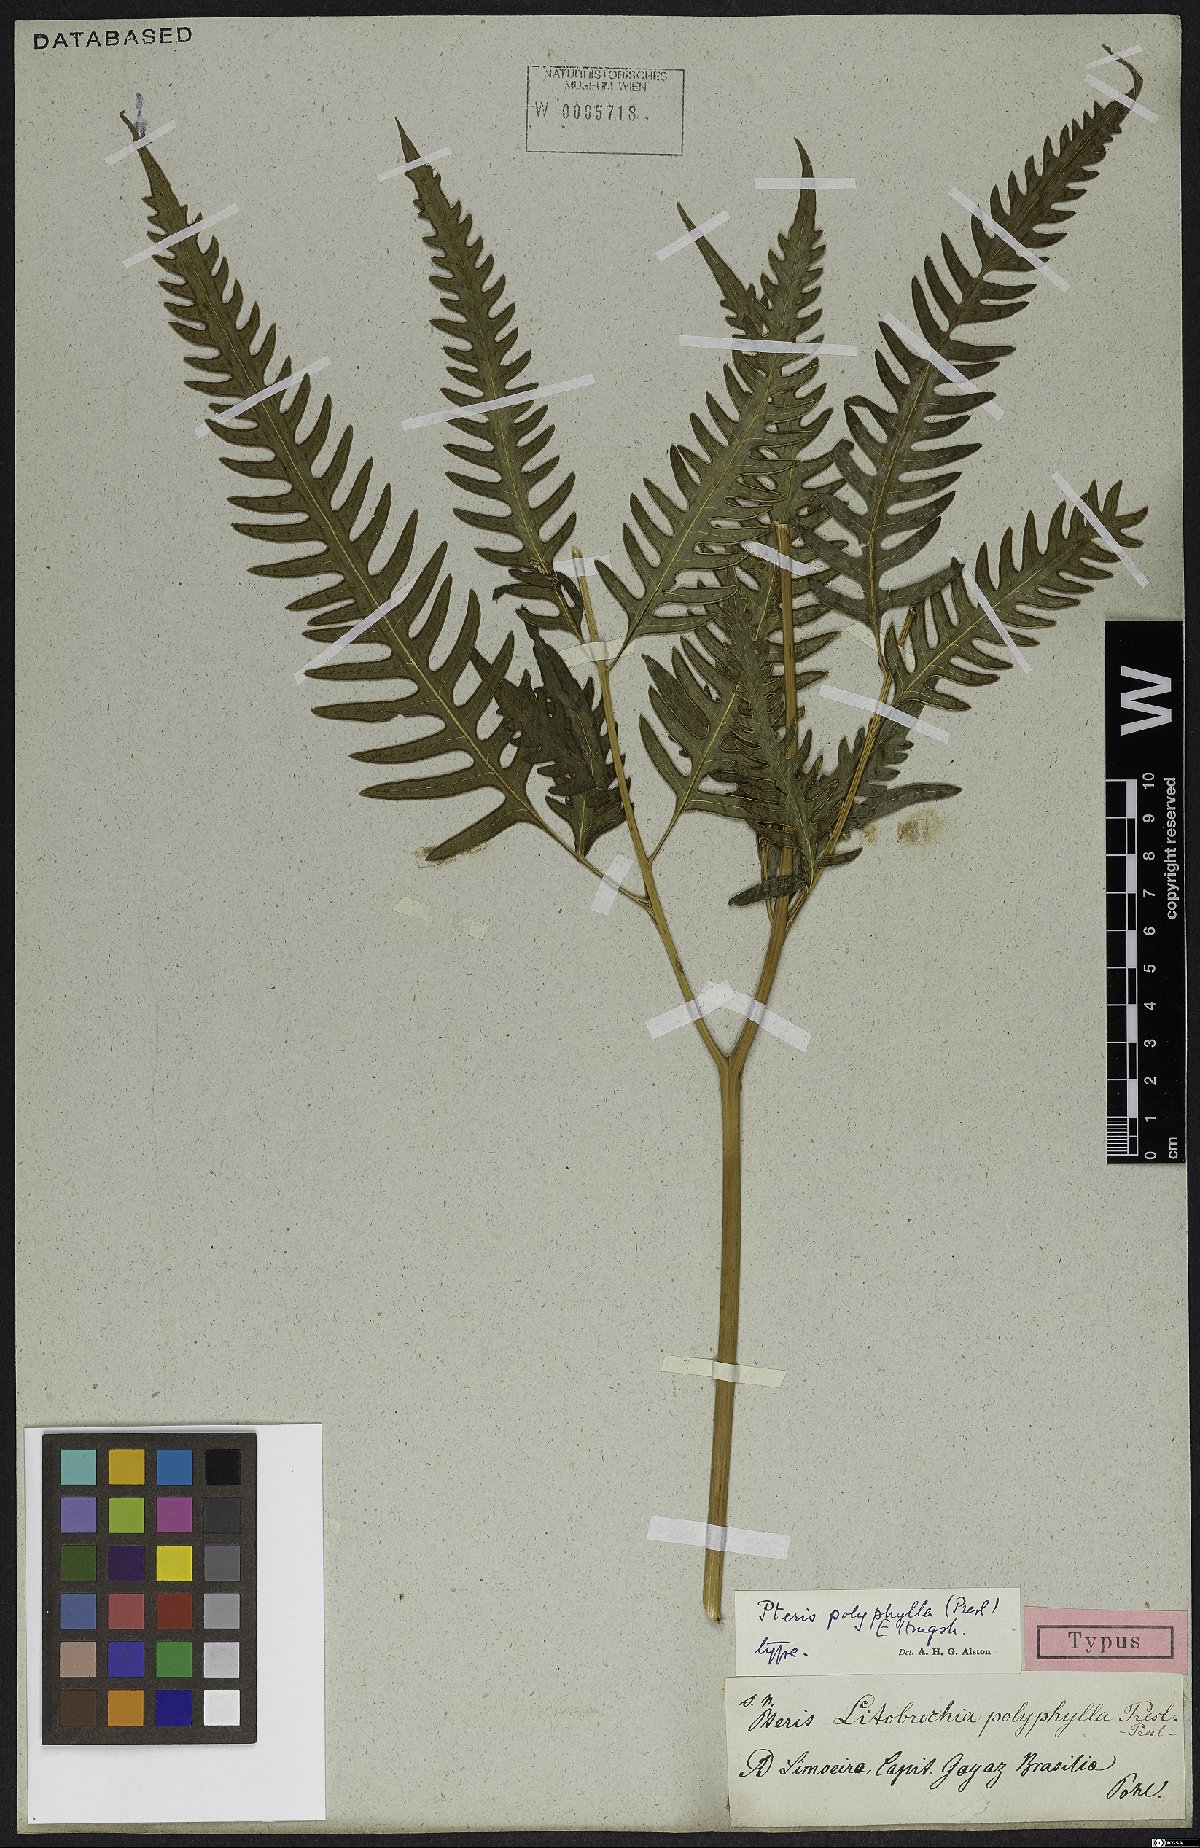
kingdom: Plantae
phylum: Tracheophyta
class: Polypodiopsida
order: Polypodiales
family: Pteridaceae
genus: Pteris
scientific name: Pteris polyphylla
